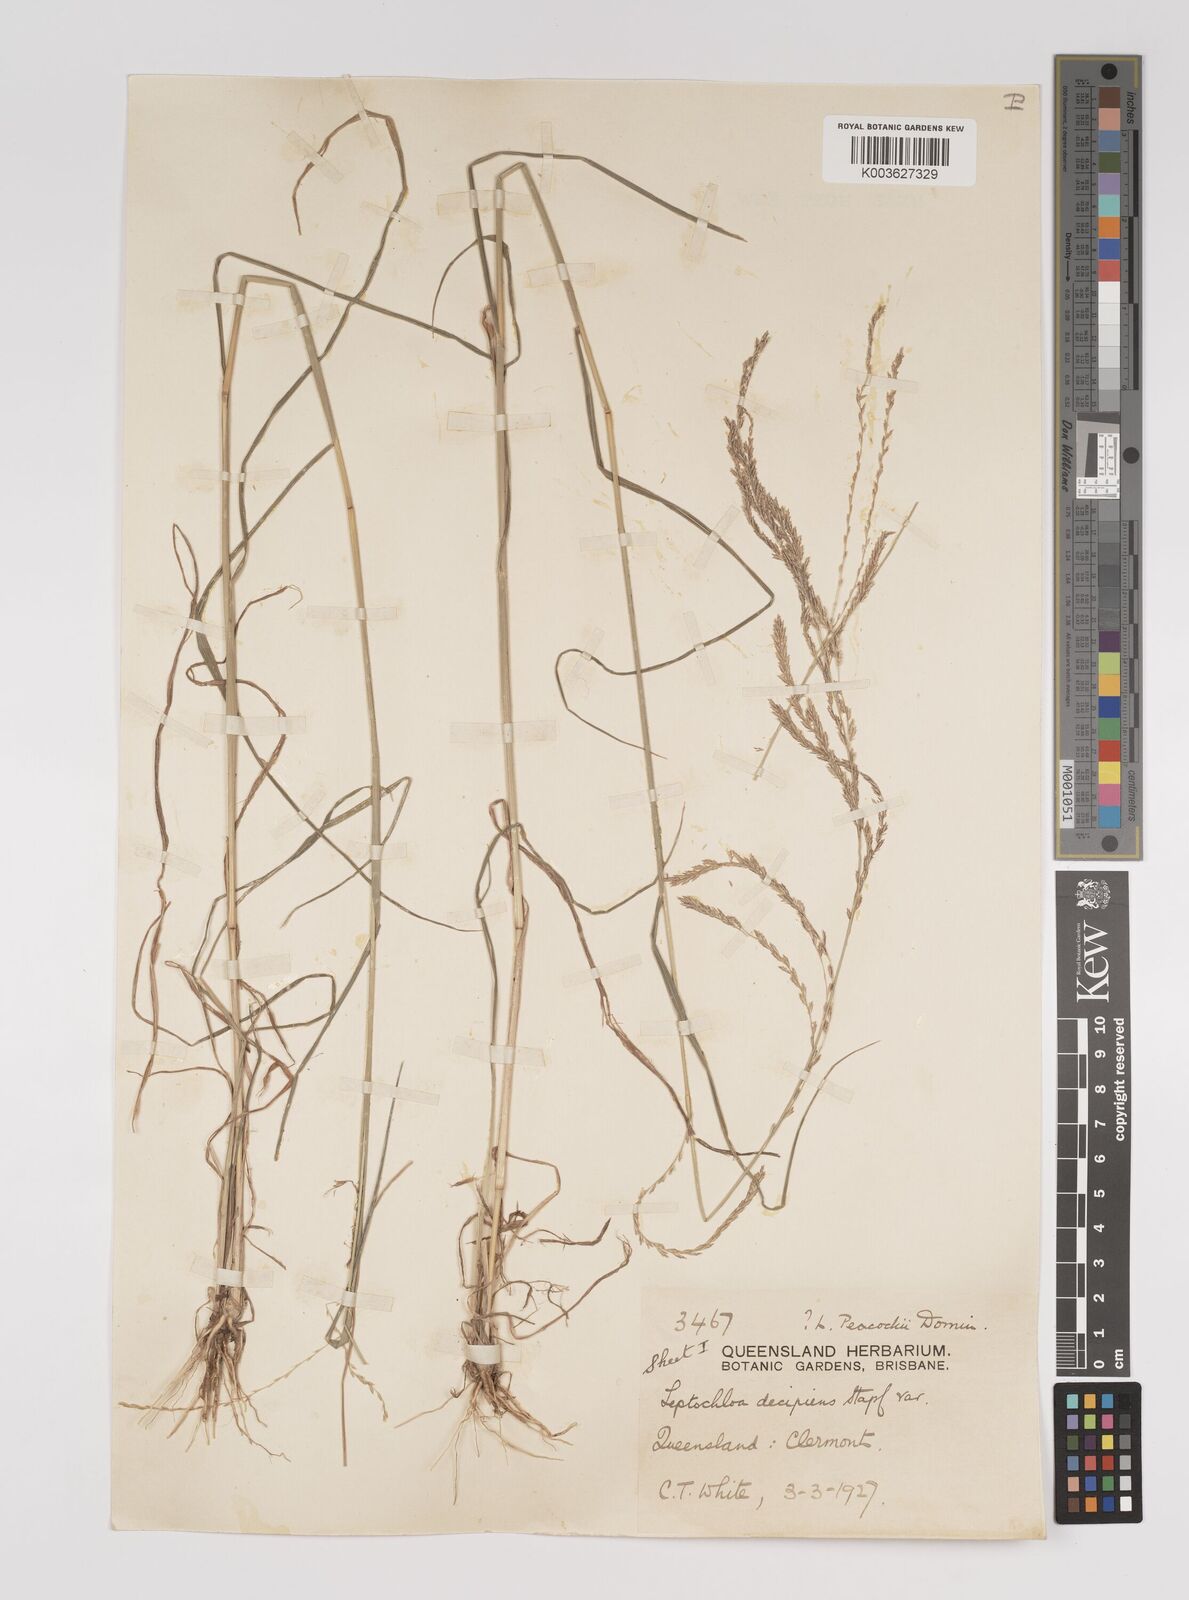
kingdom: Plantae
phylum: Tracheophyta
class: Liliopsida
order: Poales
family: Poaceae
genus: Leptochloa
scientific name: Leptochloa decipiens
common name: Australian sprangletop
